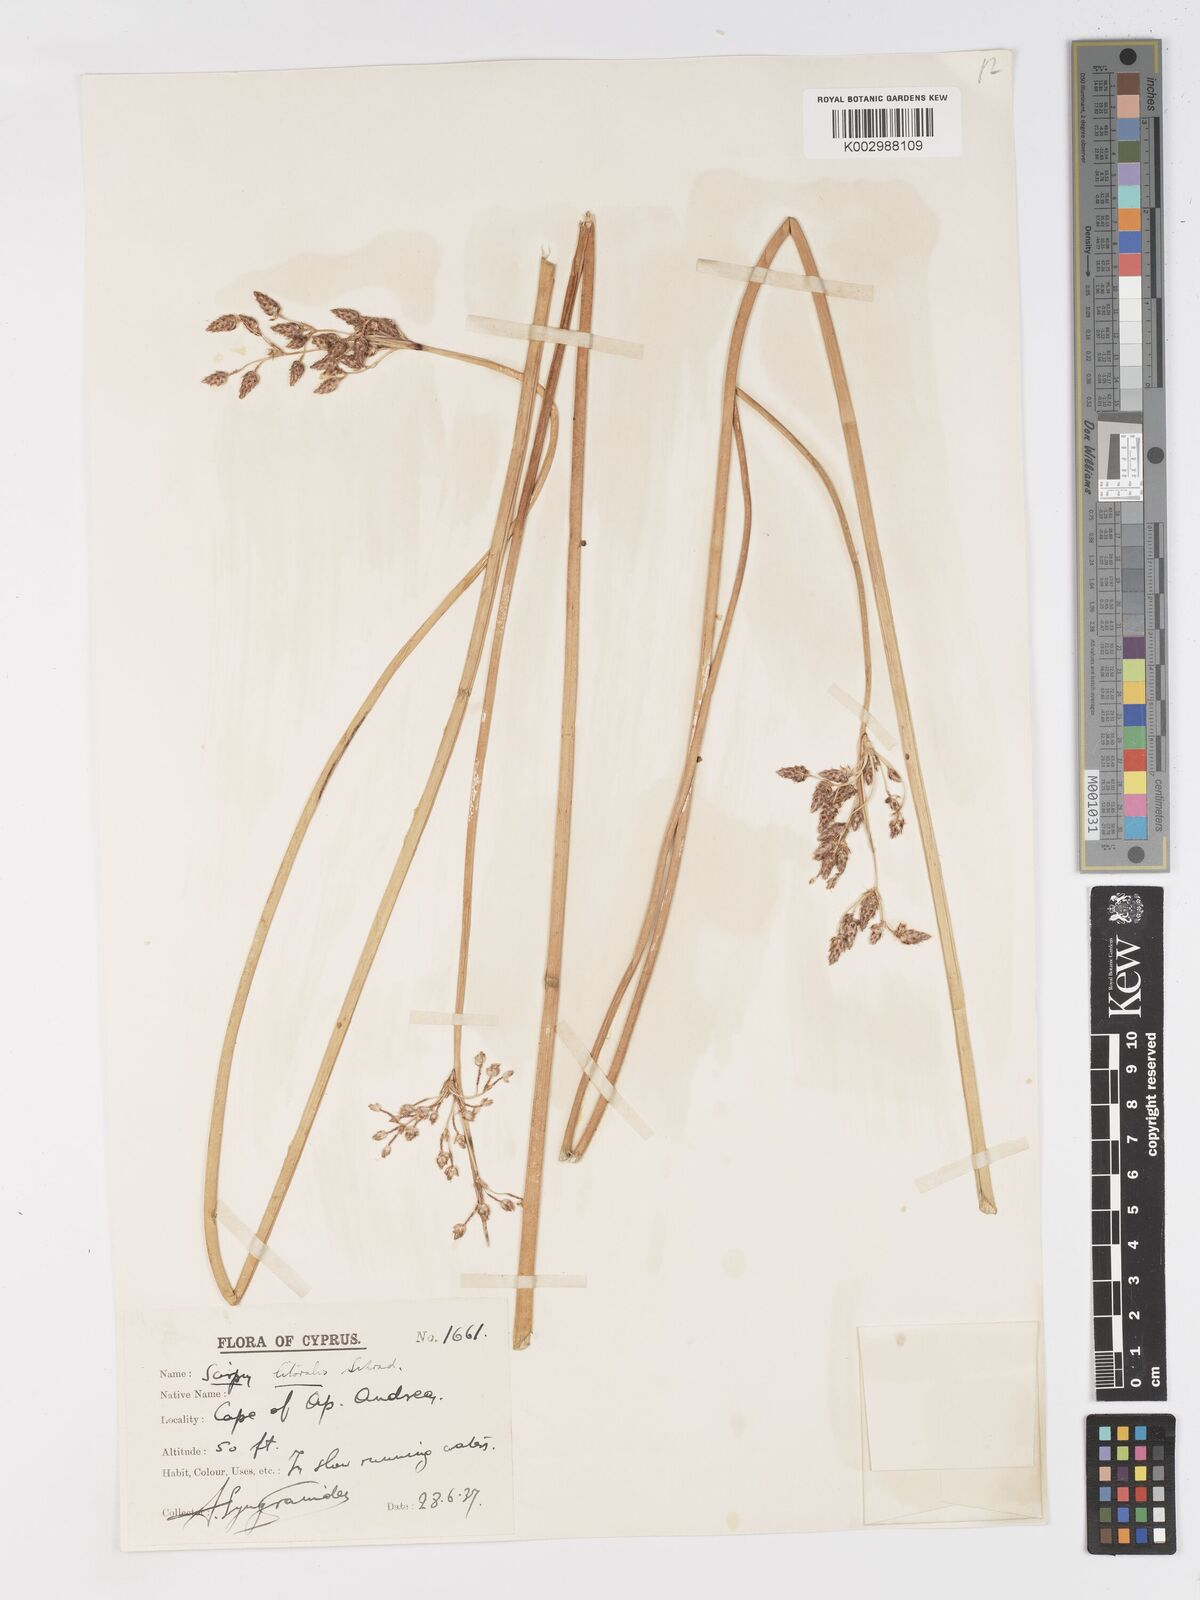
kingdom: Plantae
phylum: Tracheophyta
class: Liliopsida
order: Poales
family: Cyperaceae
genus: Schoenoplectus
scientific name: Schoenoplectus litoralis
